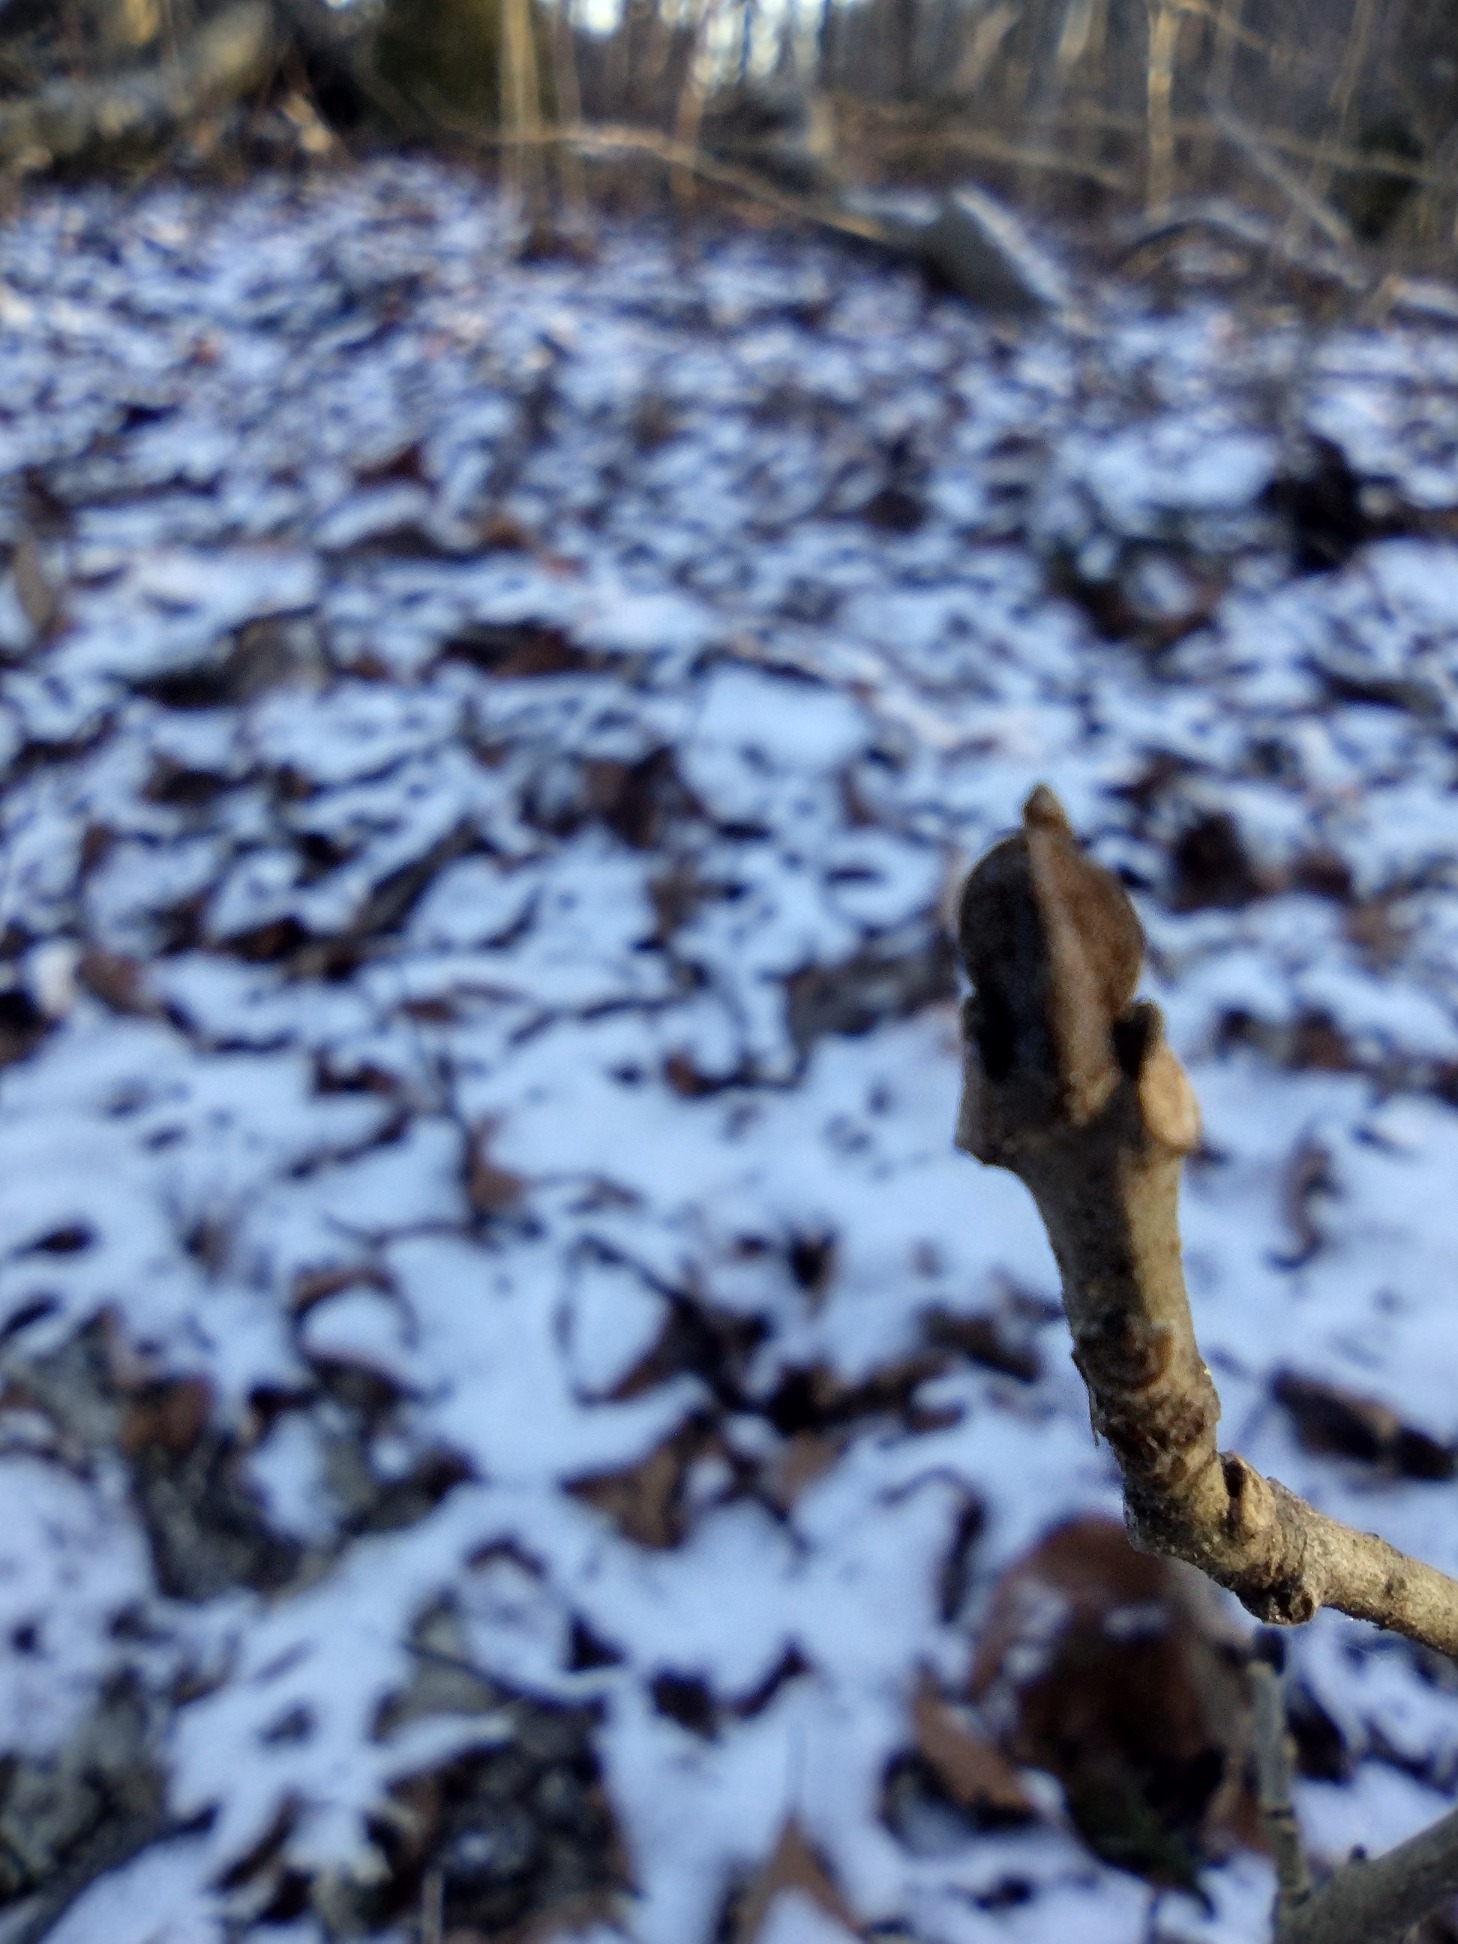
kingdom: Plantae
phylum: Tracheophyta
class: Magnoliopsida
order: Lamiales
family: Oleaceae
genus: Fraxinus
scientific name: Fraxinus excelsior
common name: Ask
